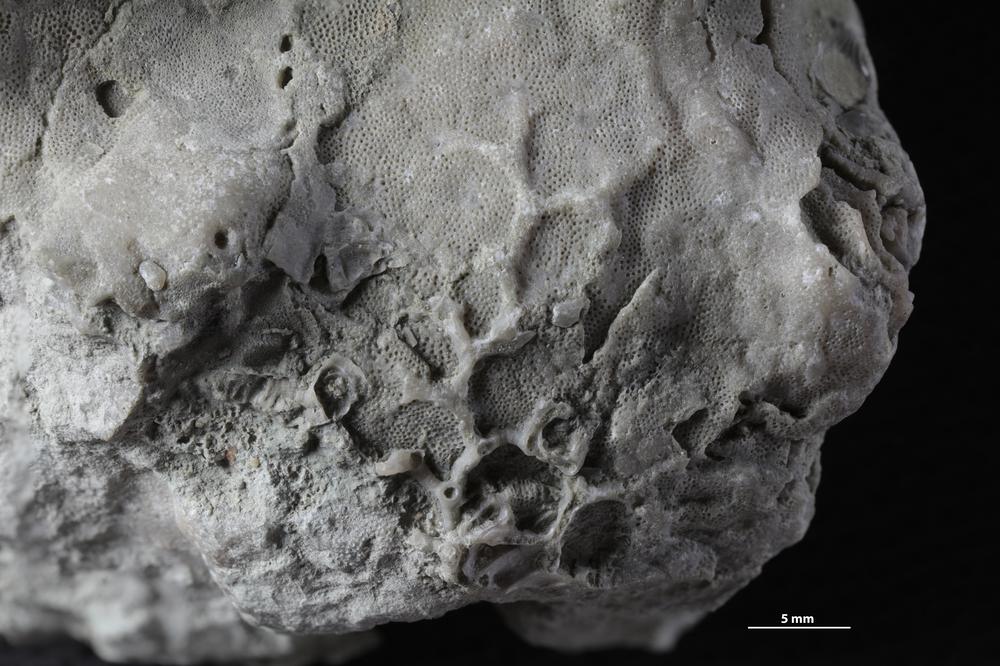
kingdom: Animalia
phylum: Bryozoa
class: Stenolaemata
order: Cystoporida
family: Fistuliporidae
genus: Fistulipora
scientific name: Fistulipora przhidolensis
